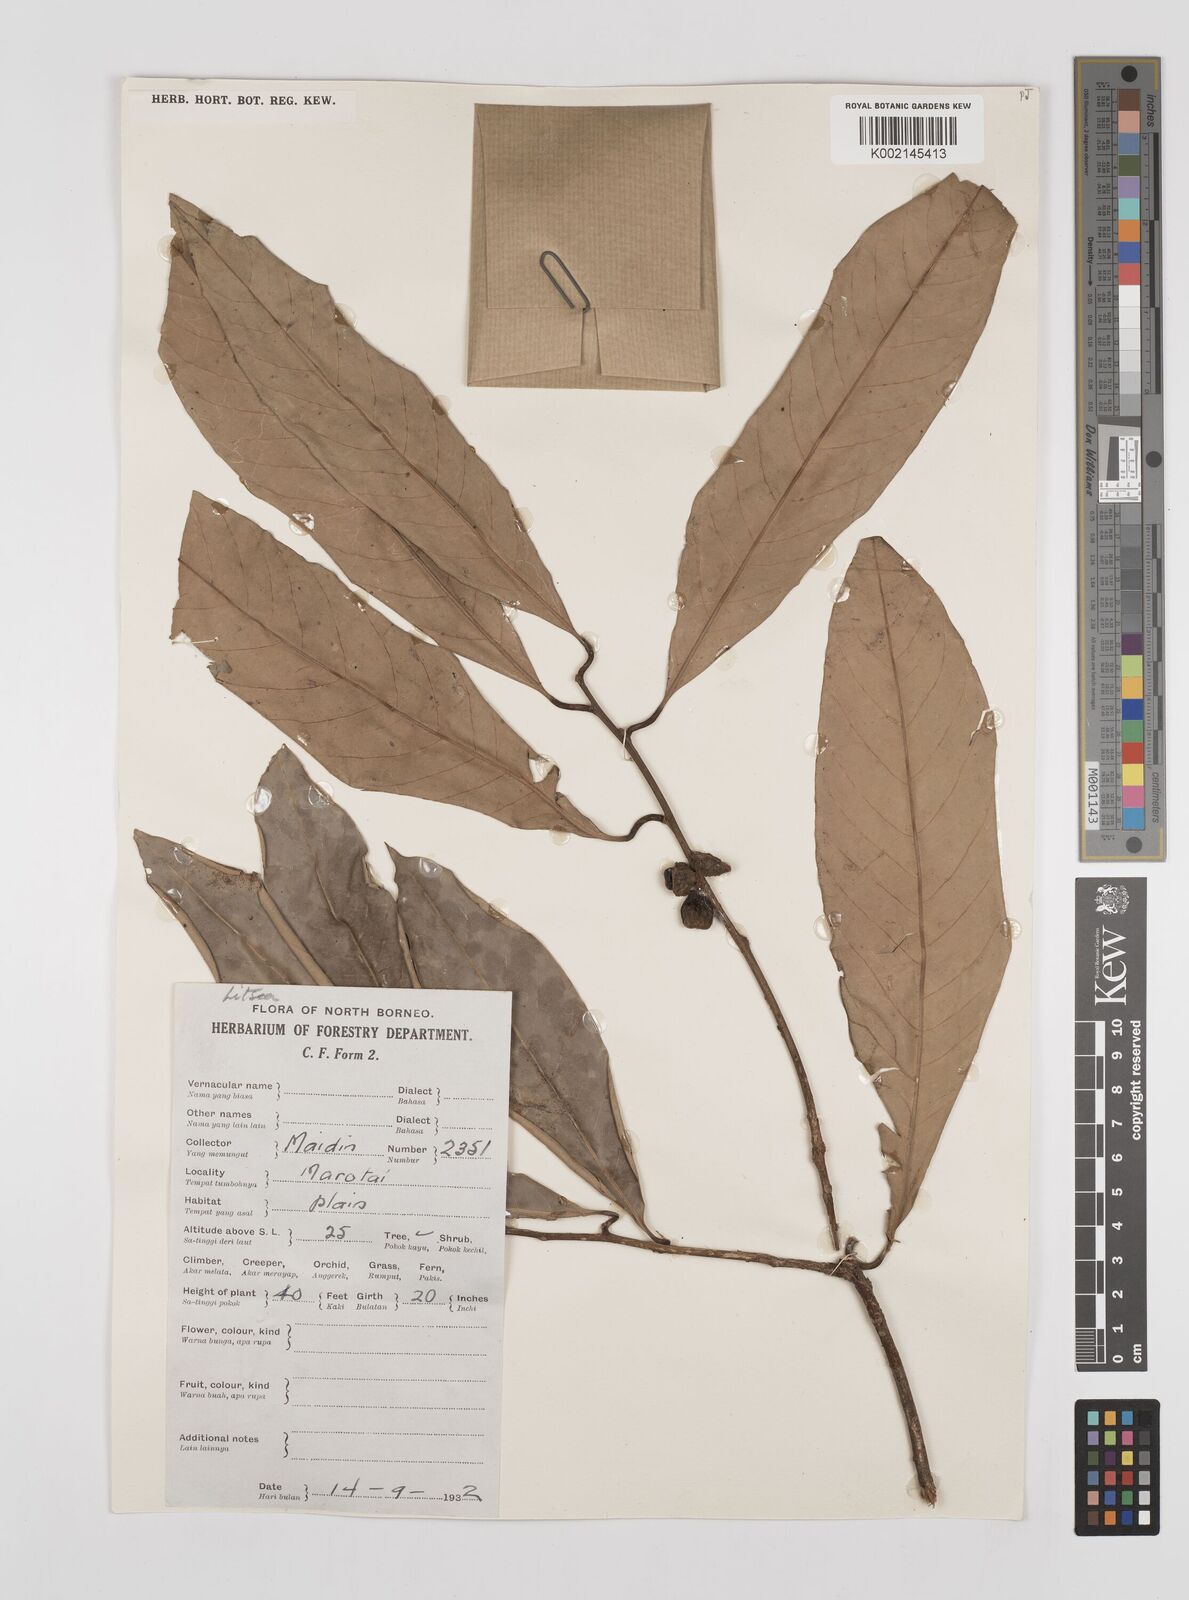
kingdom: Plantae
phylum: Tracheophyta
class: Magnoliopsida
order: Laurales
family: Lauraceae
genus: Litsea
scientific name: Litsea
